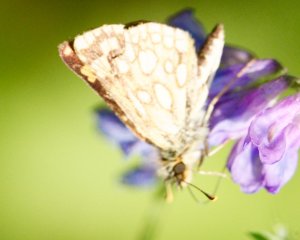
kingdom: Animalia
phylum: Arthropoda
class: Insecta
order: Lepidoptera
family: Hesperiidae
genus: Carterocephalus
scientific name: Carterocephalus palaemon
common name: Chequered Skipper
